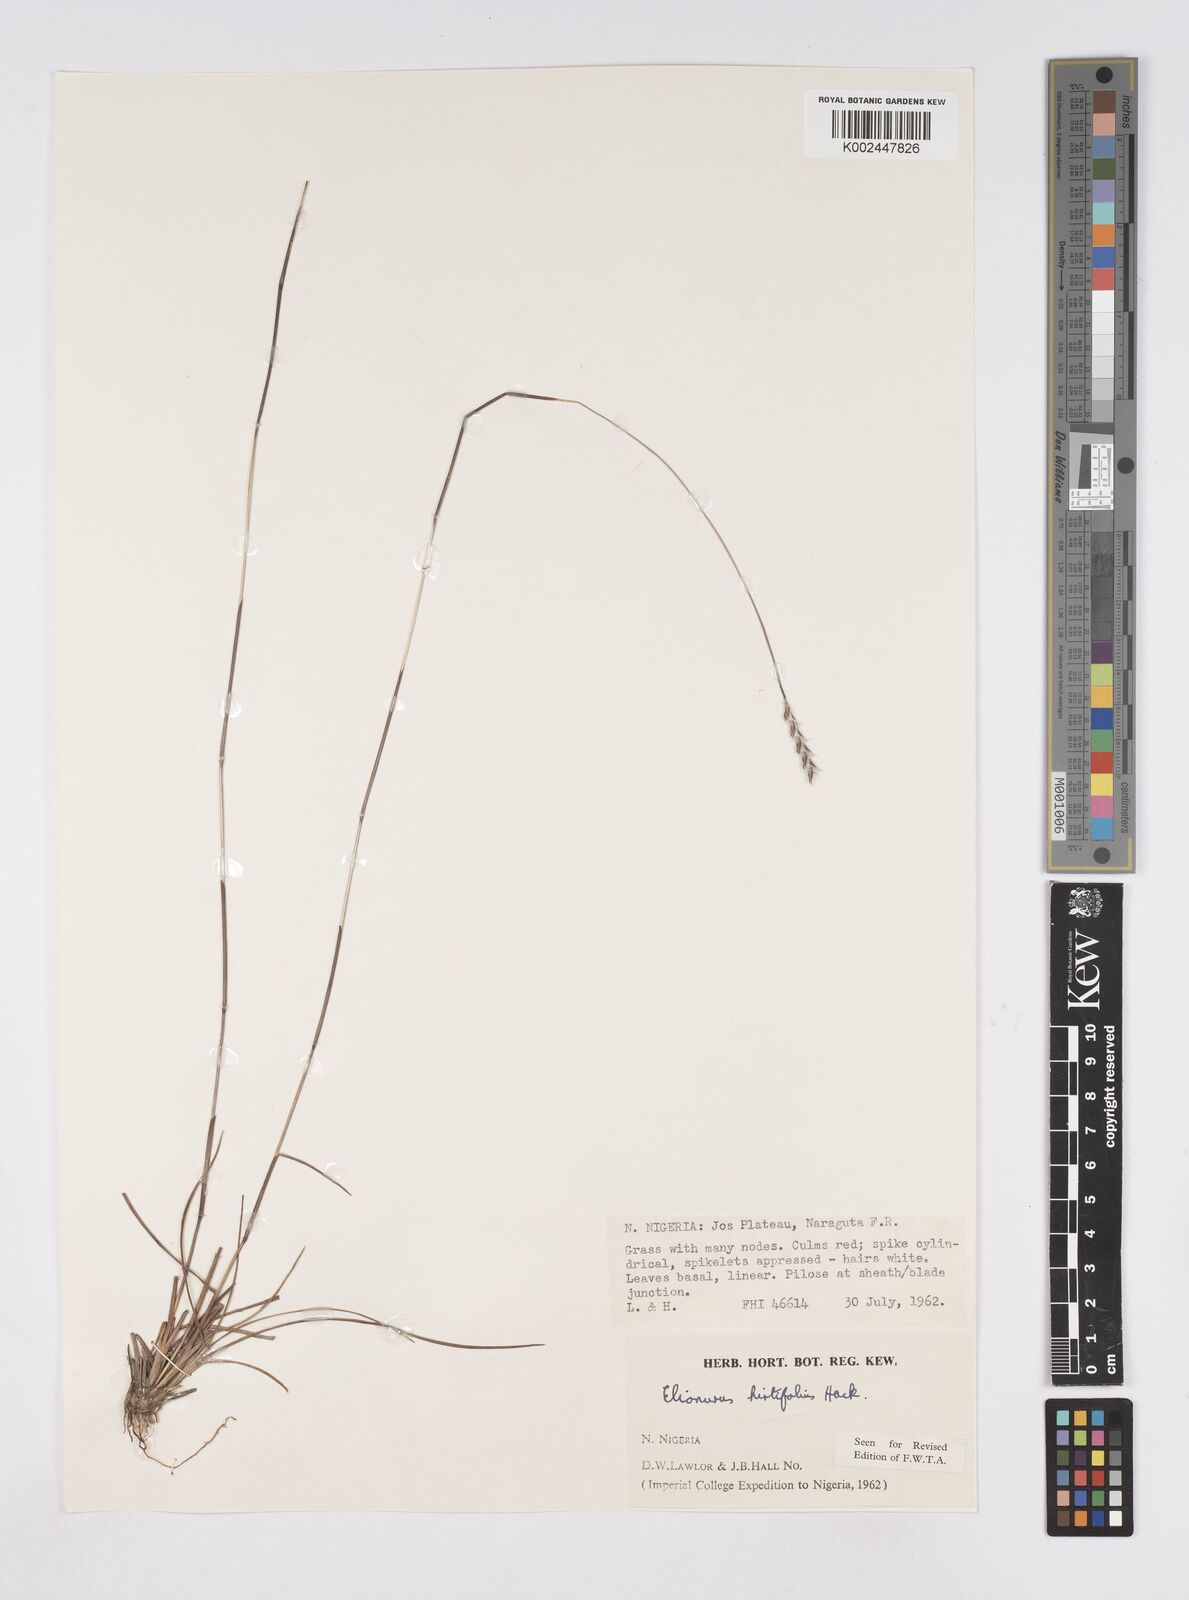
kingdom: Plantae
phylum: Tracheophyta
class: Liliopsida
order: Poales
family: Poaceae
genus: Elionurus
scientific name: Elionurus hirtifolius
